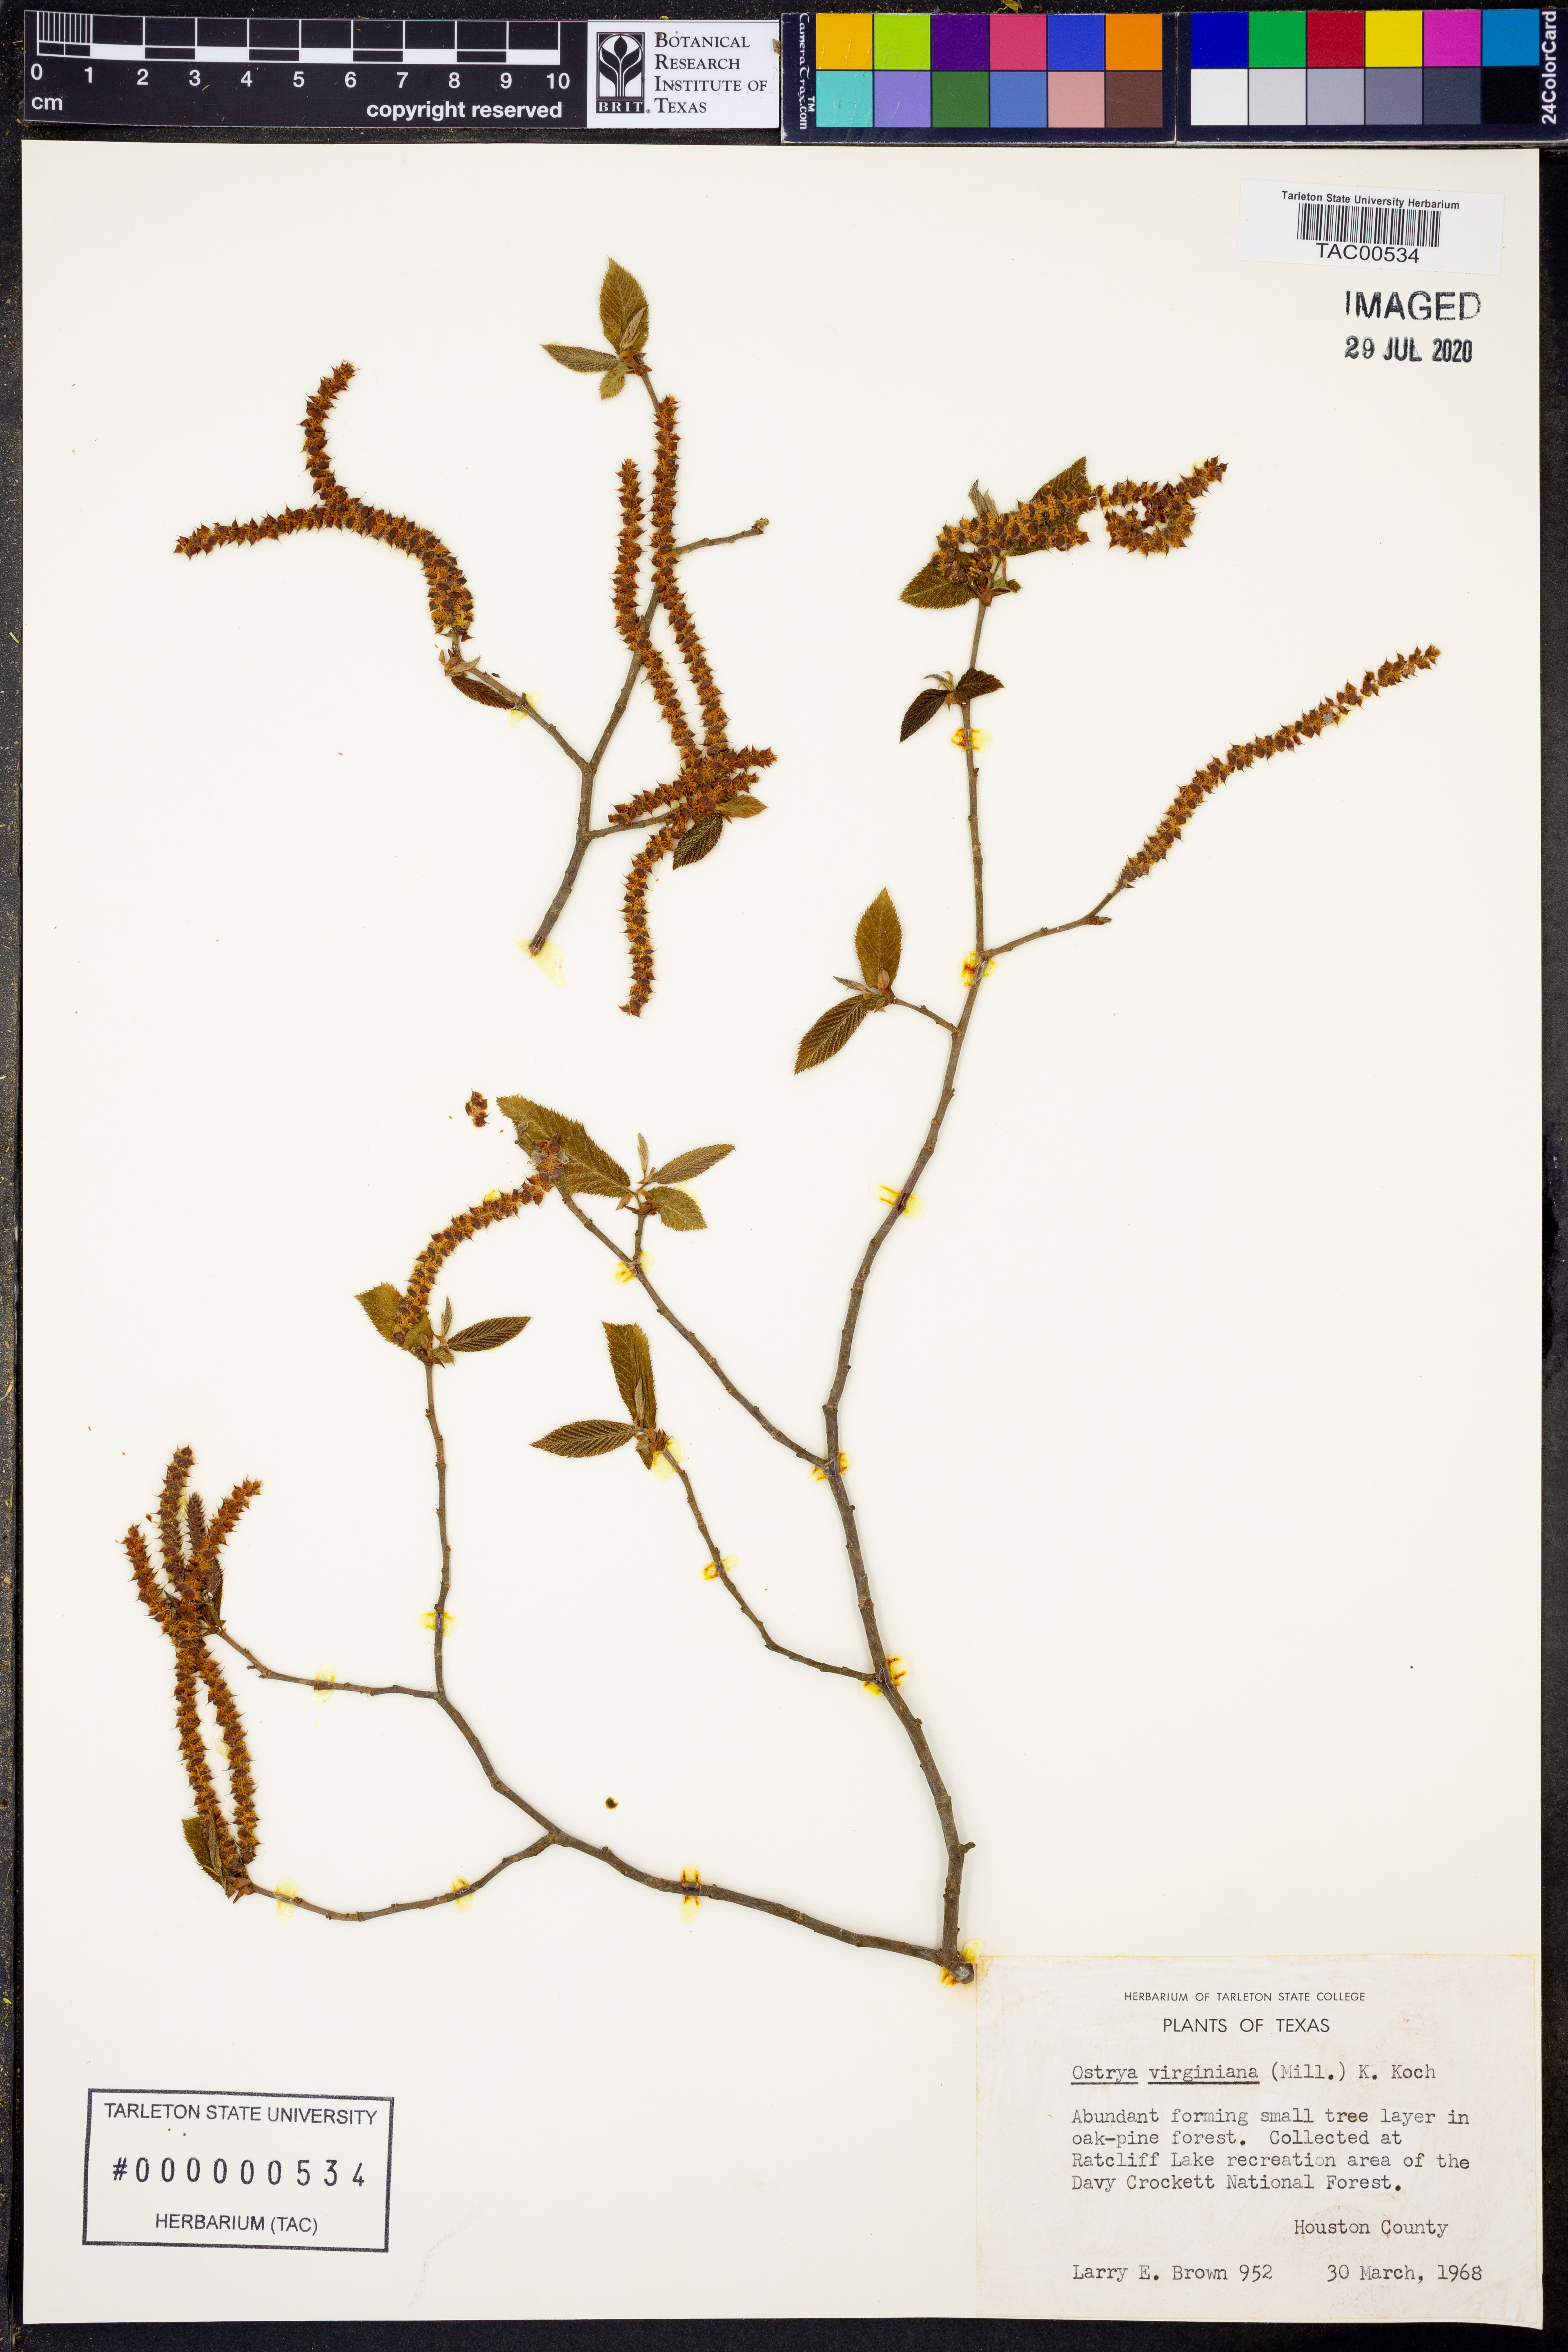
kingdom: Plantae
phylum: Tracheophyta
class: Magnoliopsida
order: Fagales
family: Betulaceae
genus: Ostrya
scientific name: Ostrya virginiana
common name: Ironwood
